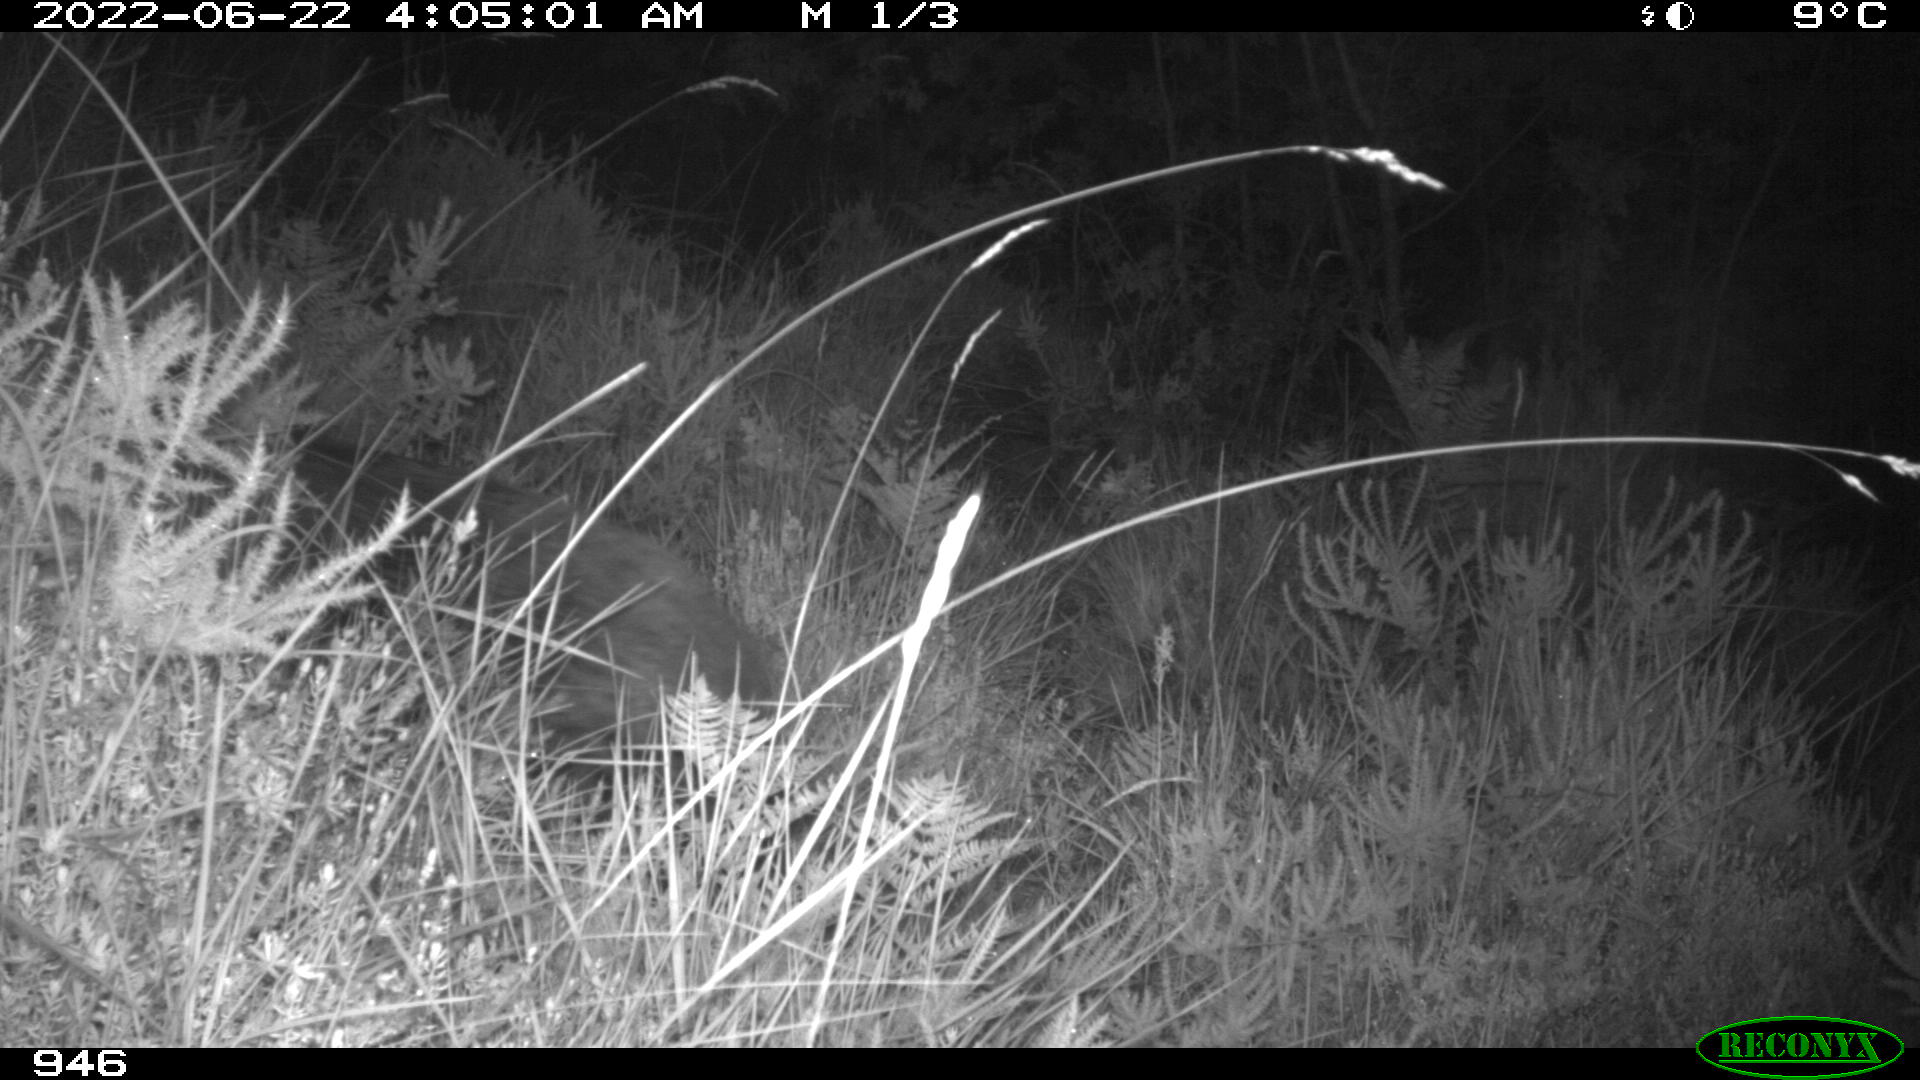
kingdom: Animalia
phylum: Chordata
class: Mammalia
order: Artiodactyla
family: Suidae
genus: Sus
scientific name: Sus scrofa
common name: Wild boar
